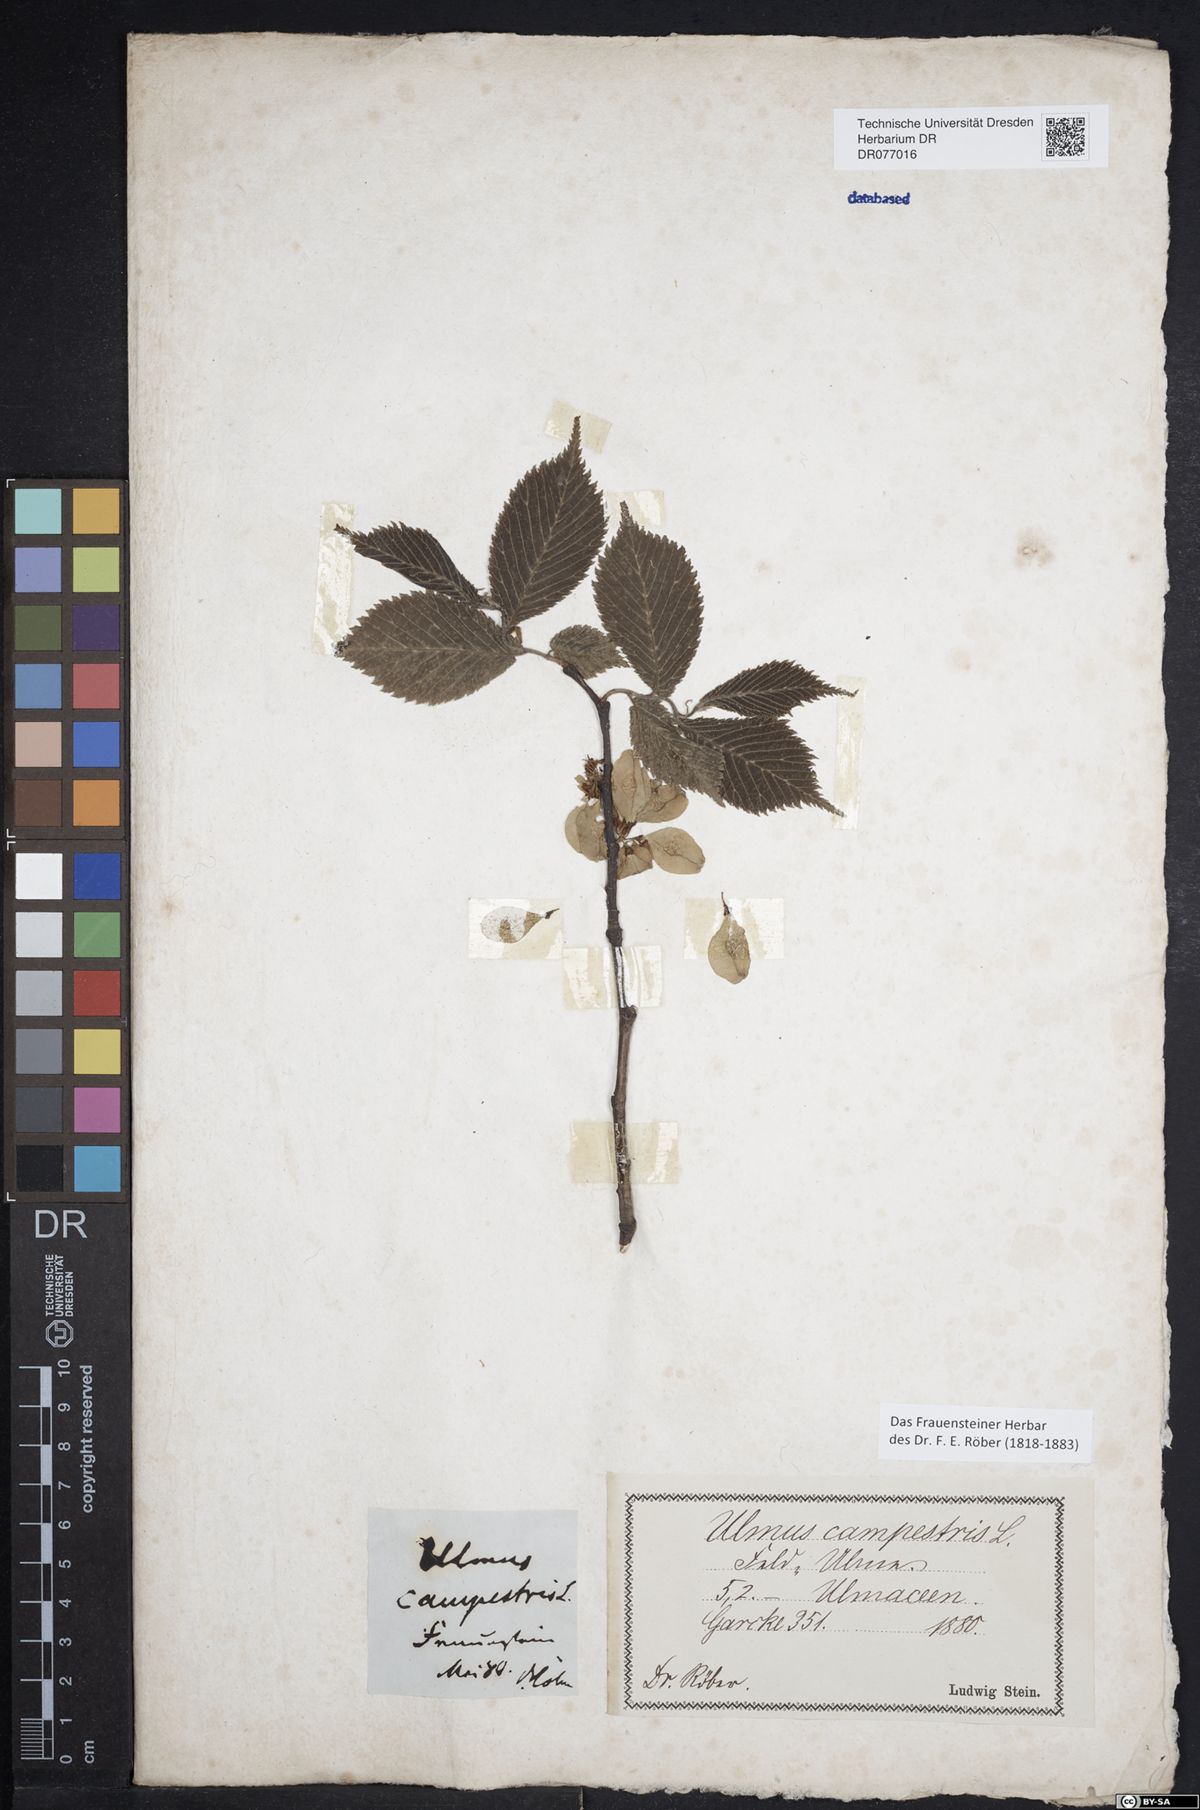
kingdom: Plantae
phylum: Tracheophyta
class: Magnoliopsida
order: Rosales
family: Ulmaceae
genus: Ulmus
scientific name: Ulmus glabra
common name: Wych elm
